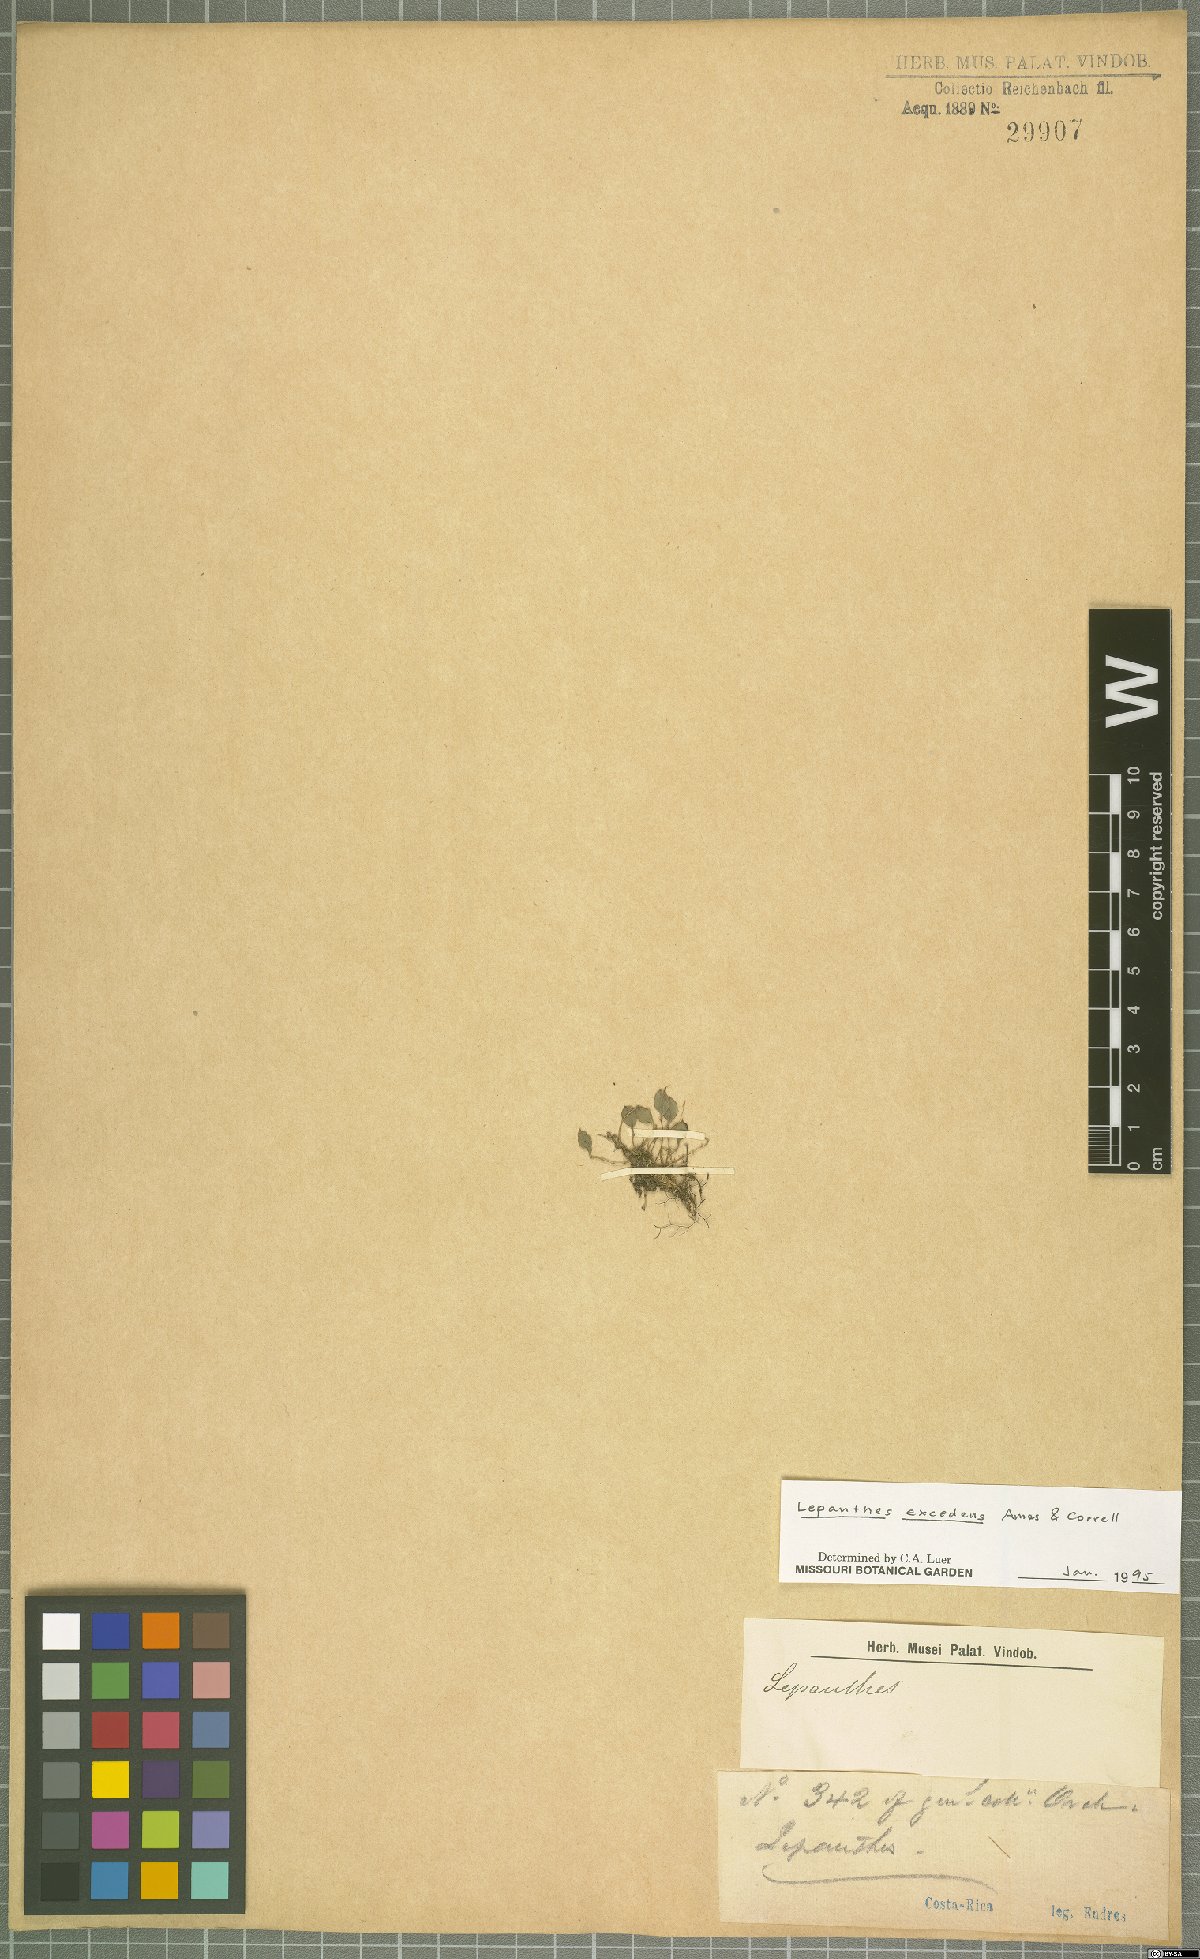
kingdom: Plantae
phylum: Tracheophyta
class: Liliopsida
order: Asparagales
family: Orchidaceae
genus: Lepanthes
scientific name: Lepanthes excedens
